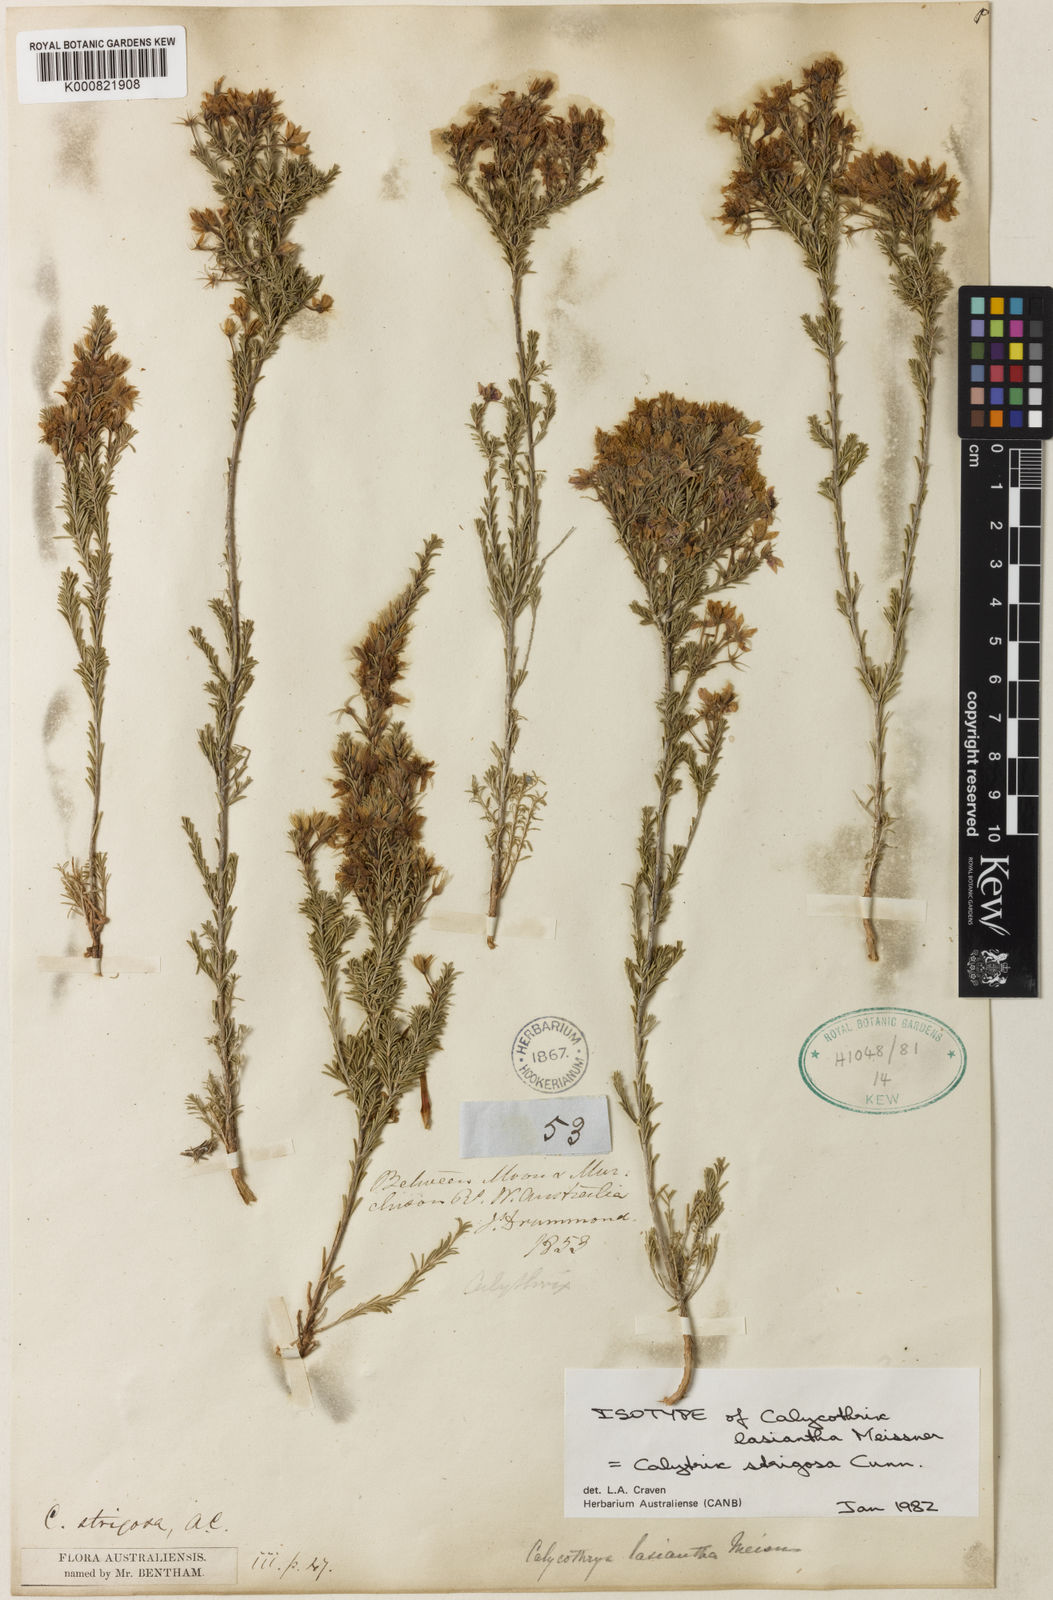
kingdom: Plantae
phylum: Tracheophyta
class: Magnoliopsida
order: Myrtales
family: Myrtaceae
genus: Calytrix
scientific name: Calytrix strigosa
